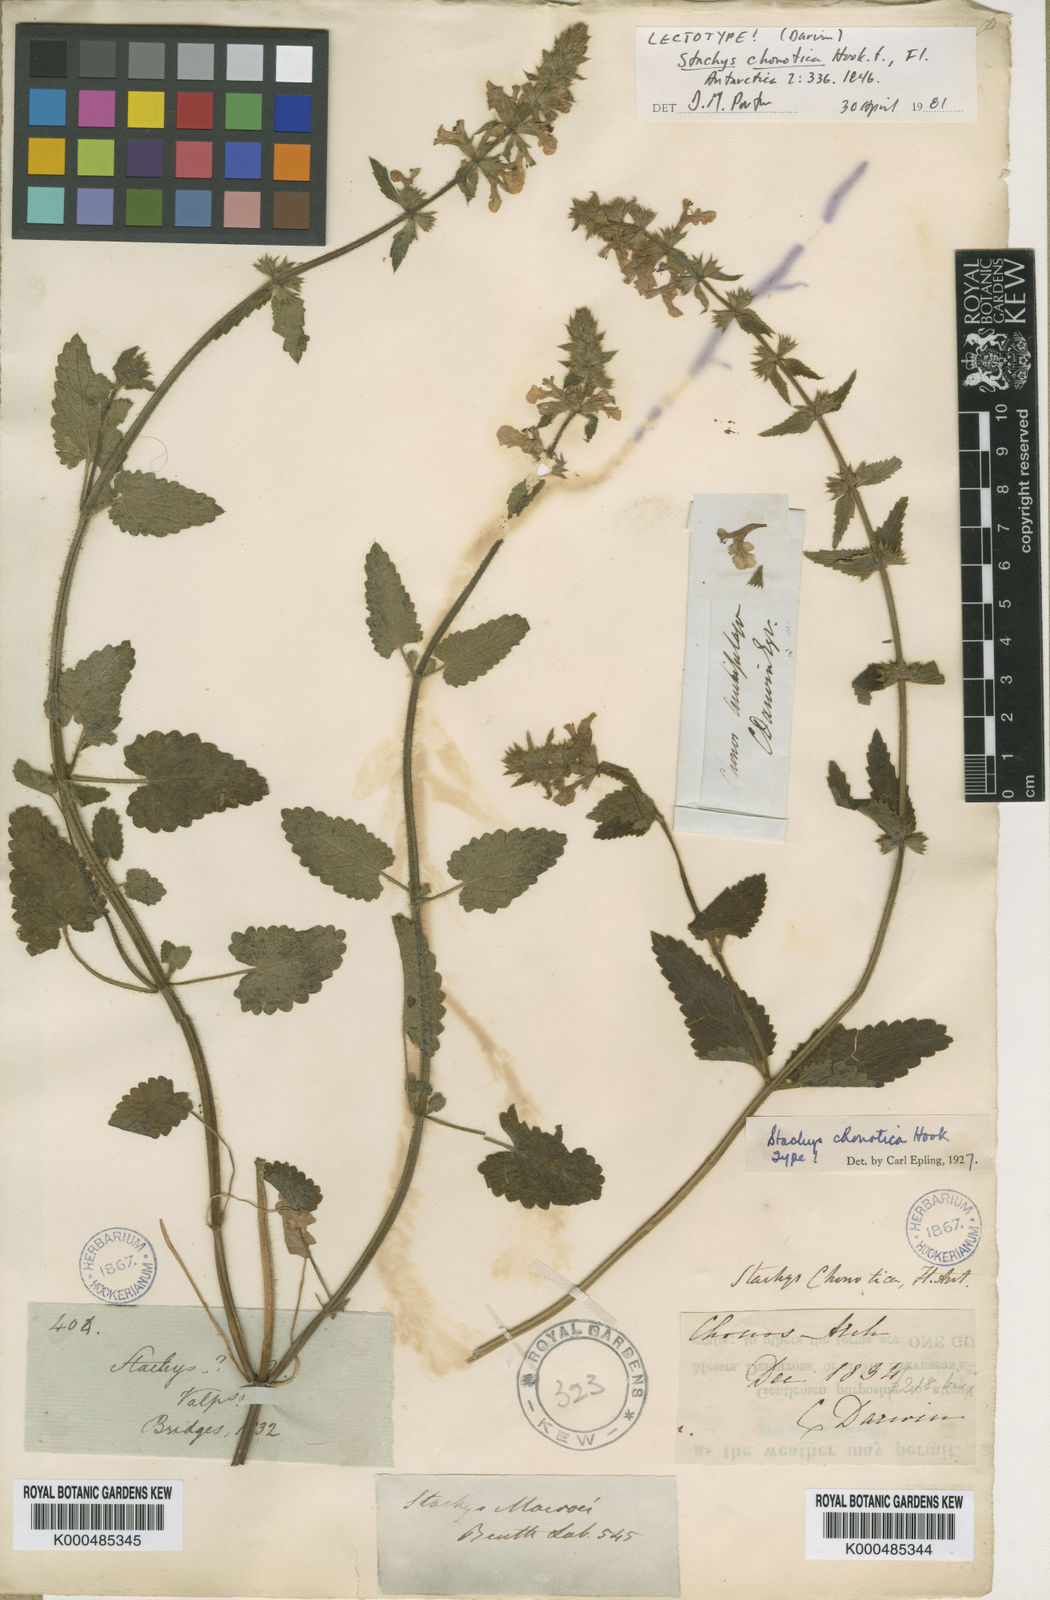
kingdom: Plantae
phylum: Tracheophyta
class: Magnoliopsida
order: Lamiales
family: Lamiaceae
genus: Stachys
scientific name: Stachys macraei
